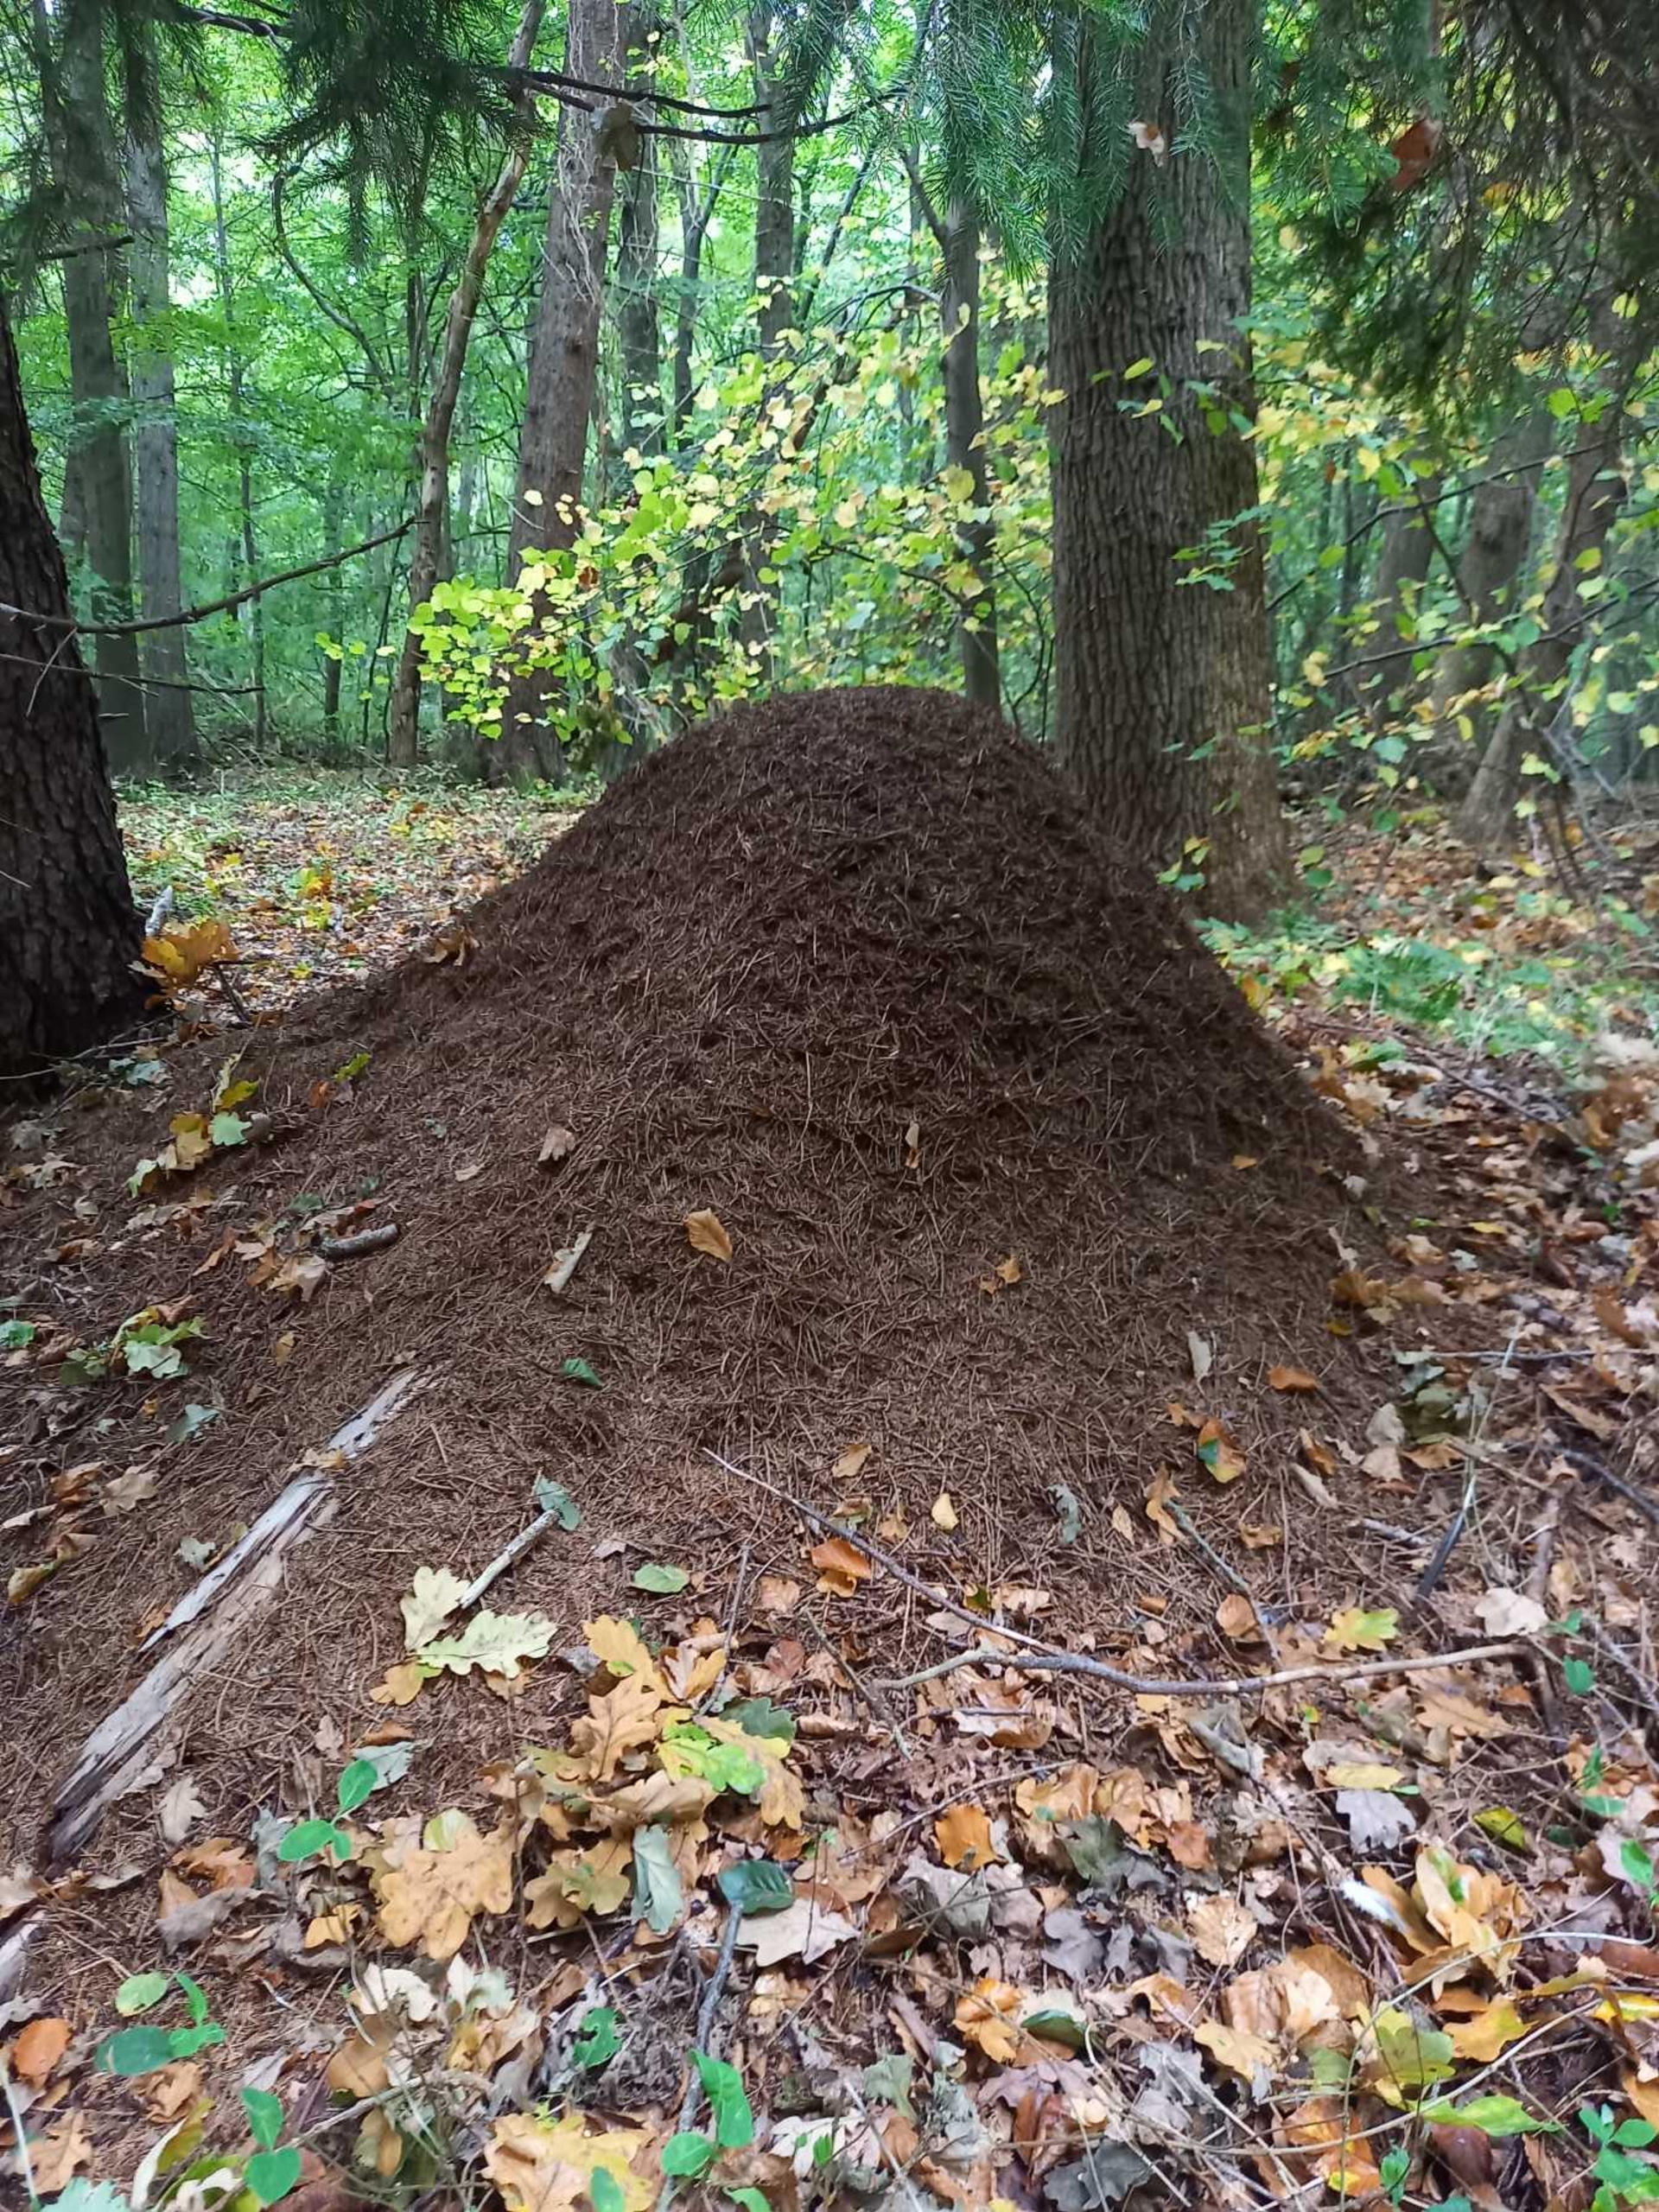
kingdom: Animalia
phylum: Arthropoda
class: Insecta
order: Hymenoptera
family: Formicidae
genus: Formica
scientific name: Formica
